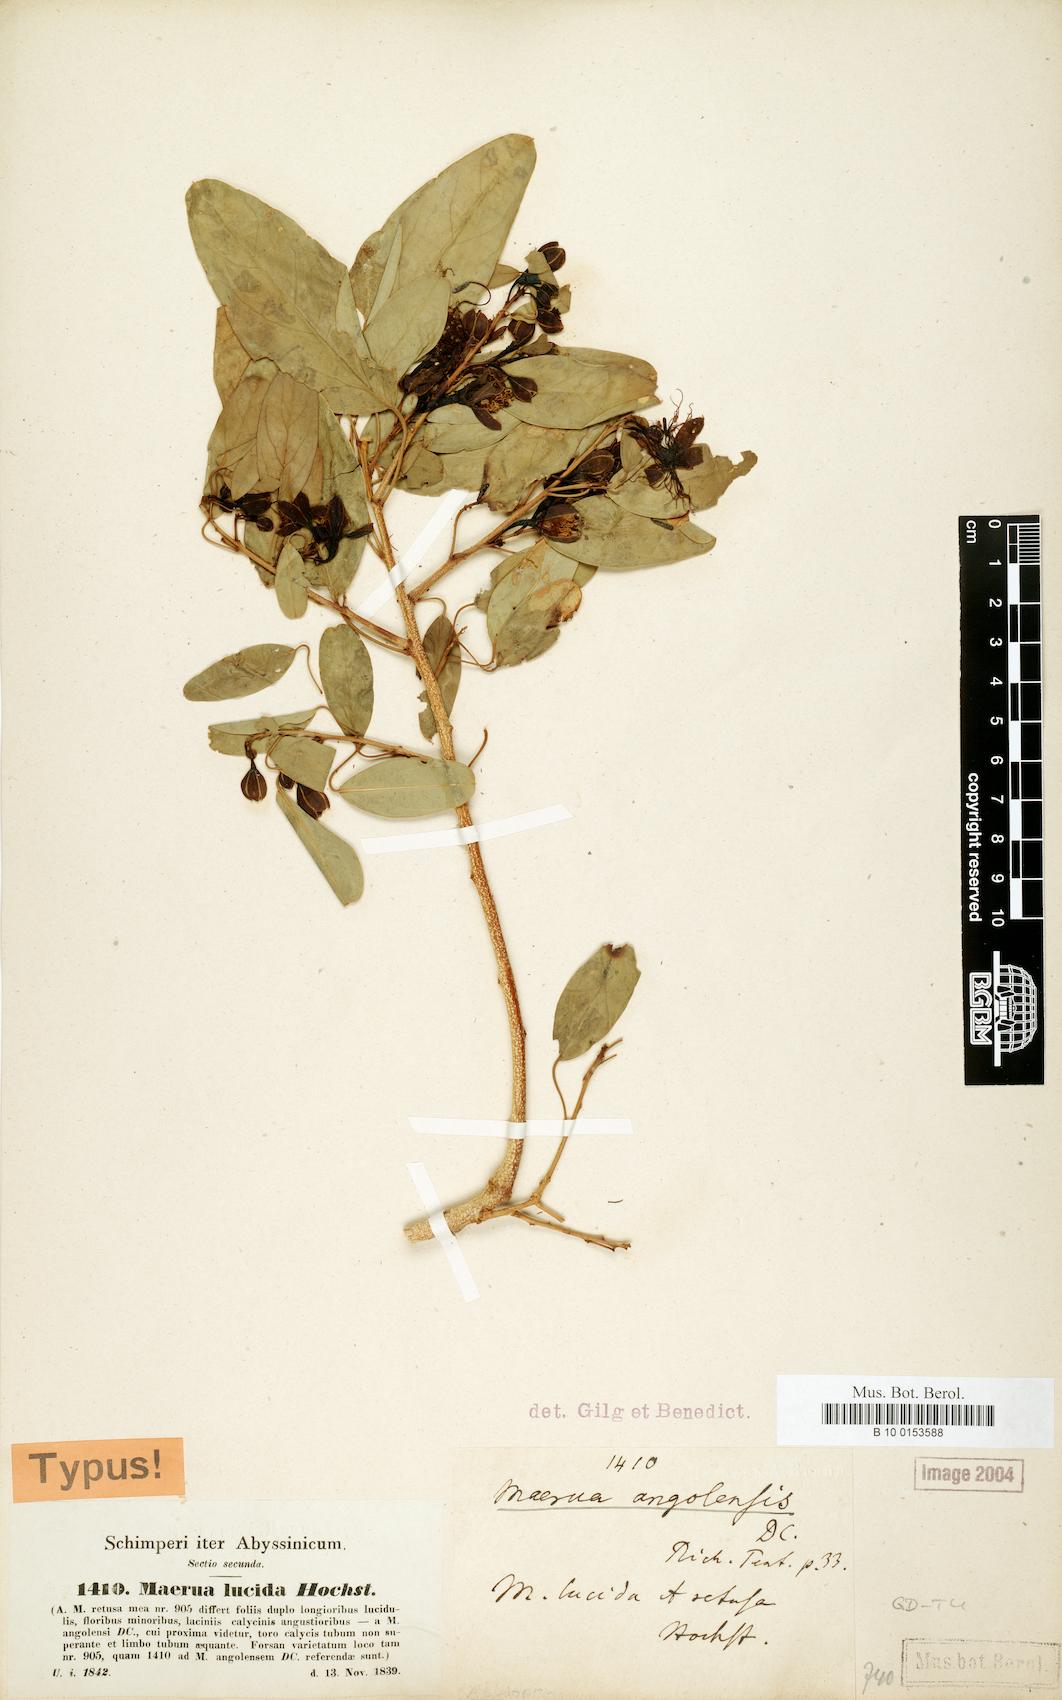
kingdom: Plantae
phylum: Tracheophyta
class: Magnoliopsida
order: Brassicales
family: Capparaceae
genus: Maerua
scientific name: Maerua angolensis
